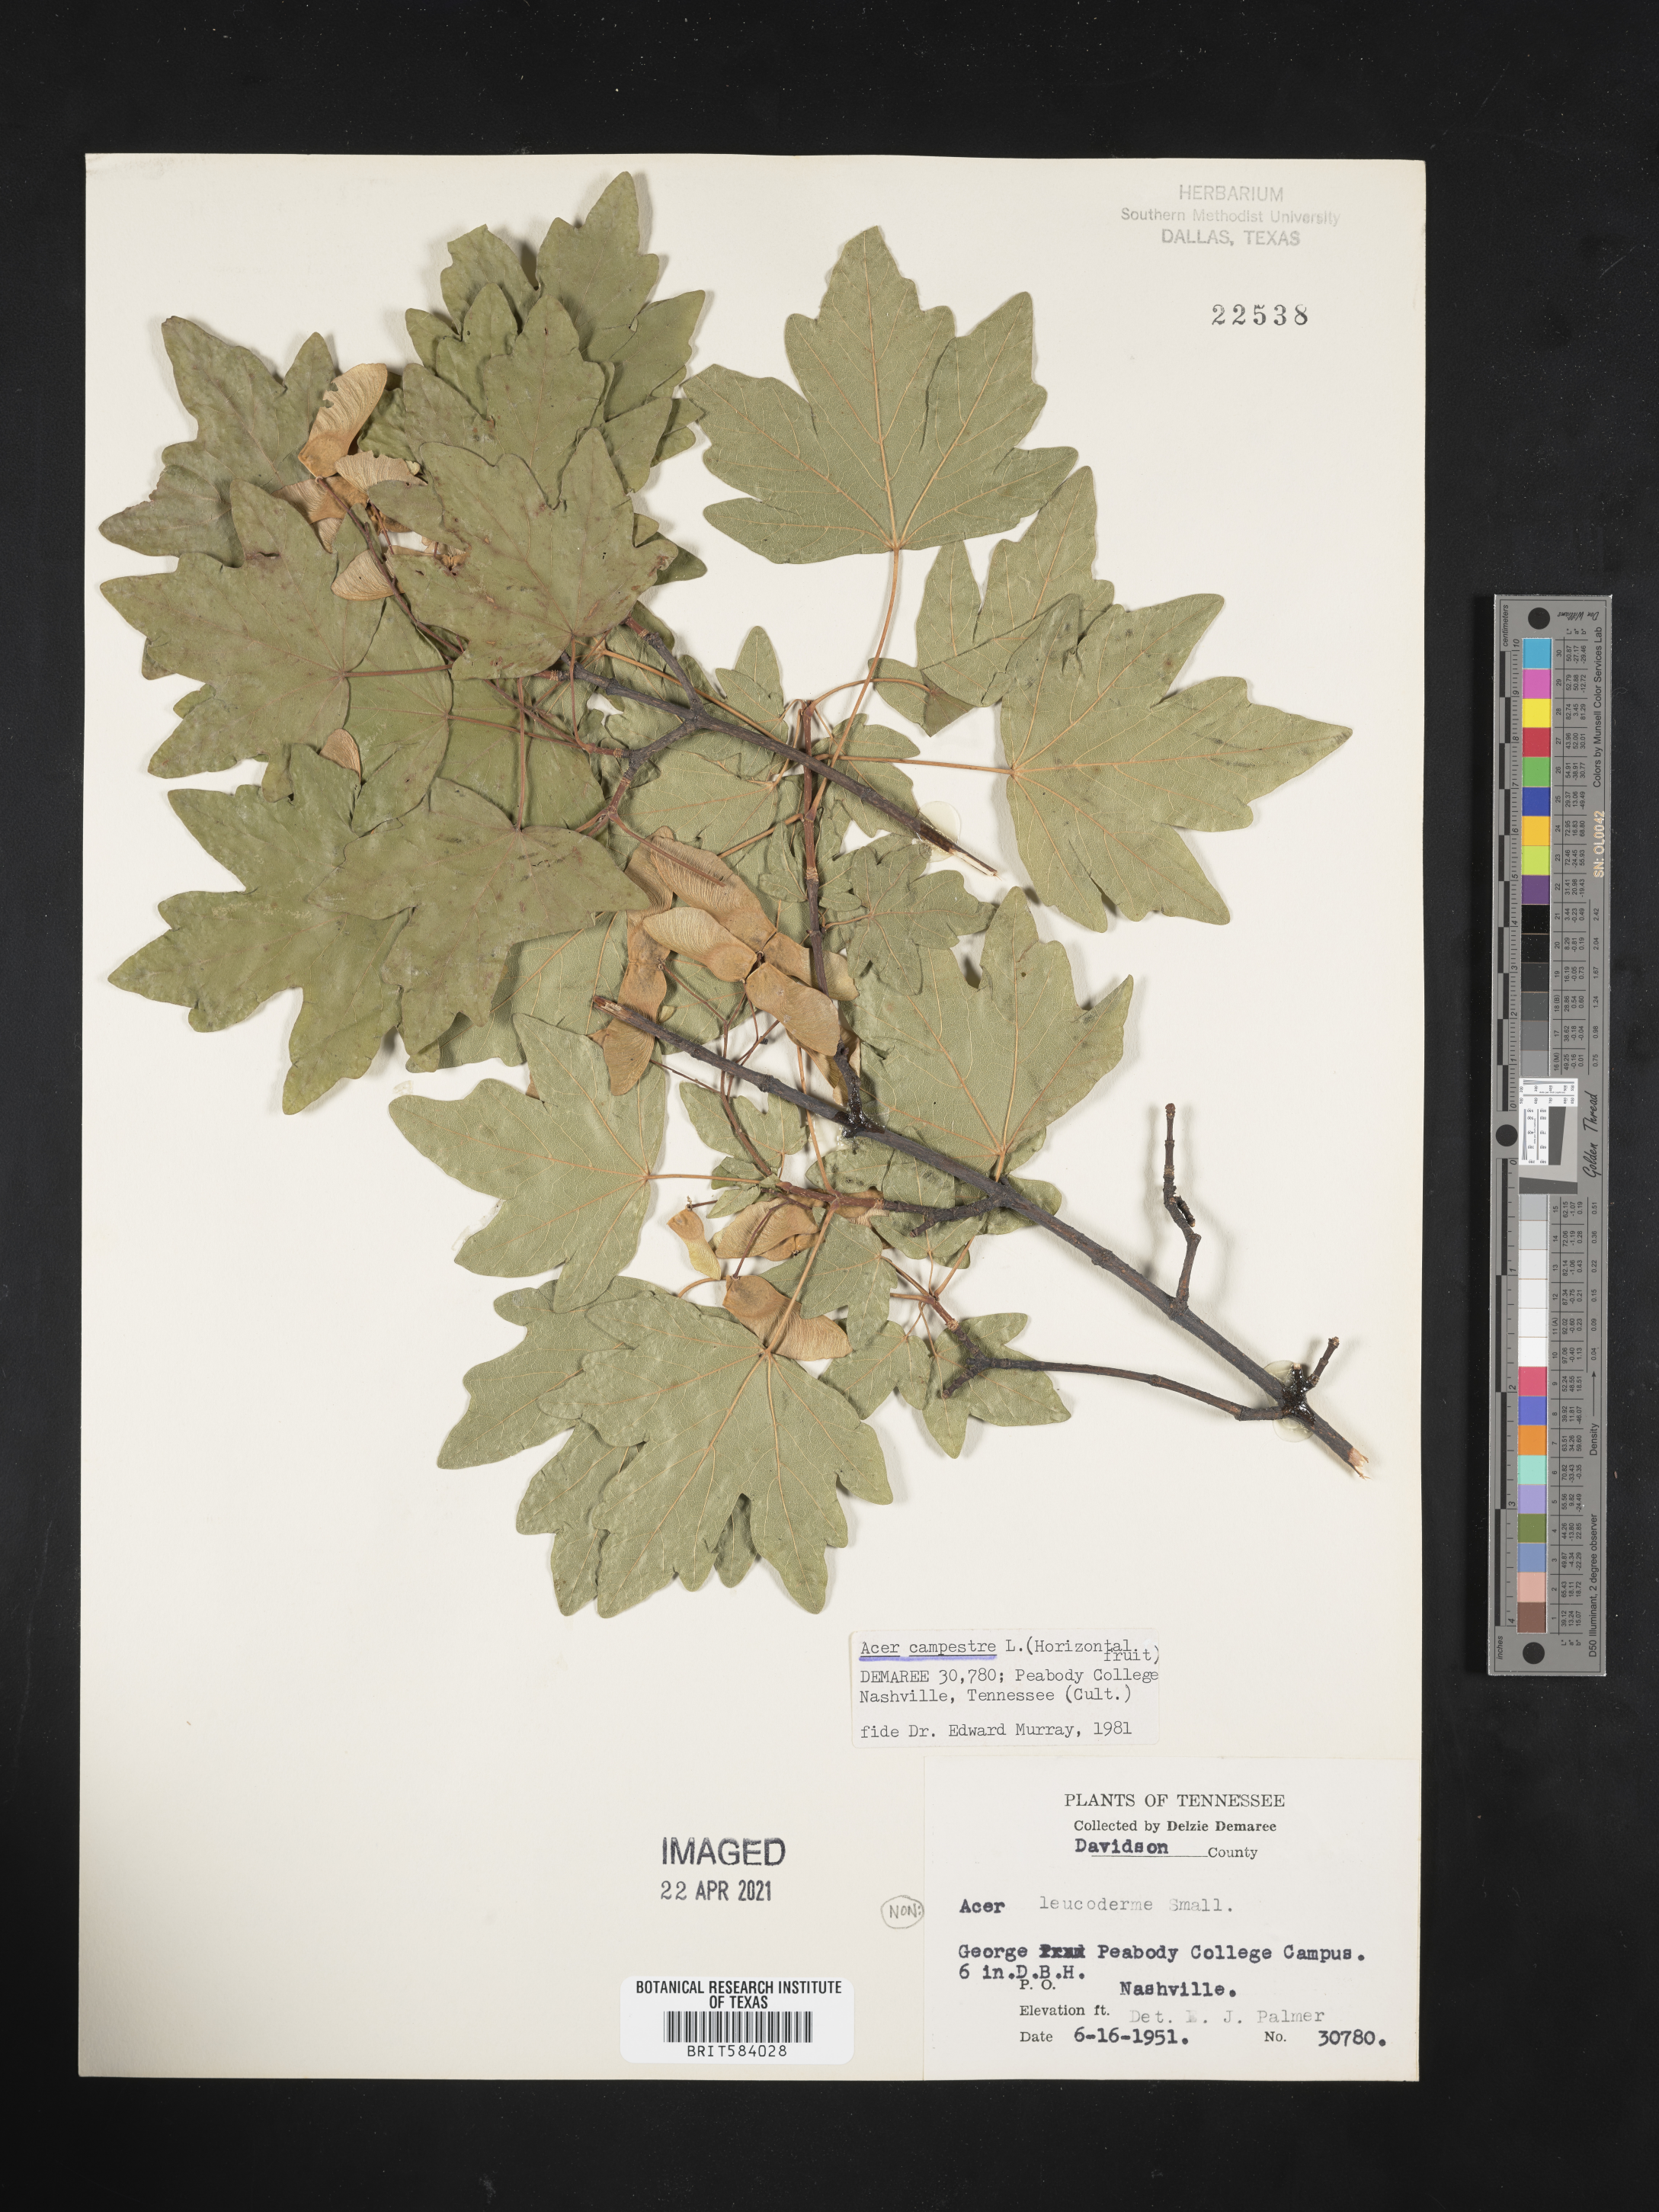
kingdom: Plantae
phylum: Tracheophyta
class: Magnoliopsida
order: Sapindales
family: Sapindaceae
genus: Acer
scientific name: Acer campestre
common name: Field maple
